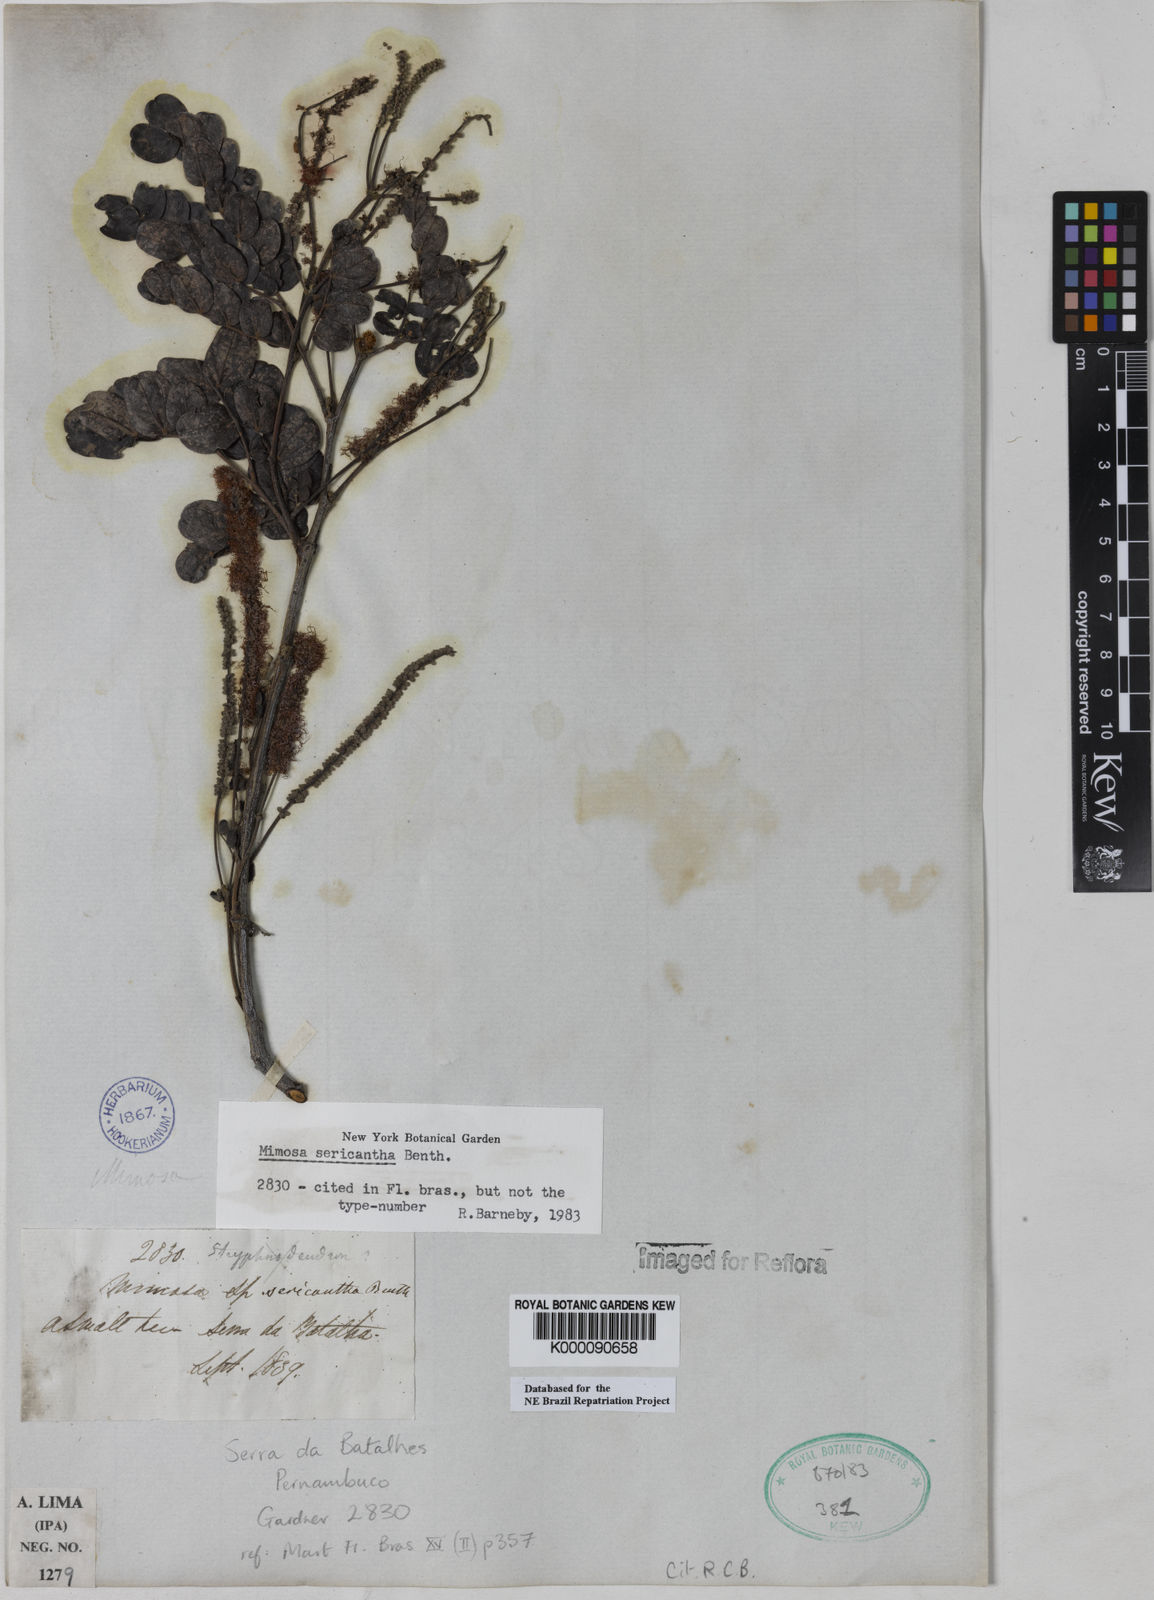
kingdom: Plantae
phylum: Tracheophyta
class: Magnoliopsida
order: Fabales
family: Fabaceae
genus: Mimosa
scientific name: Mimosa sericantha
